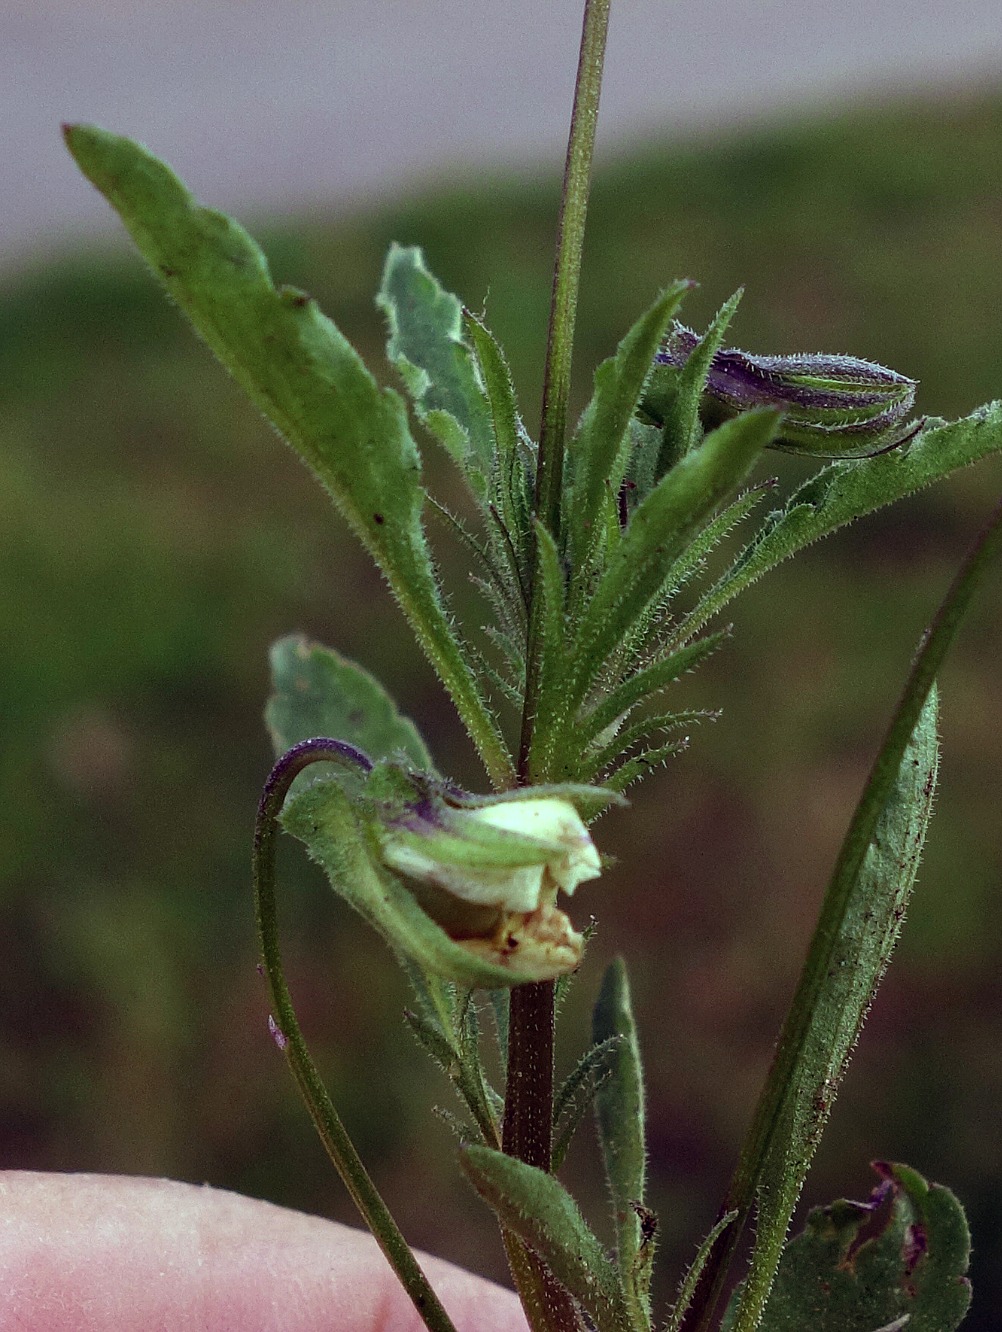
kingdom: Plantae
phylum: Tracheophyta
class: Magnoliopsida
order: Malpighiales
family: Violaceae
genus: Viola
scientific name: Viola arvensis
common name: Ager-stedmoderblomst
